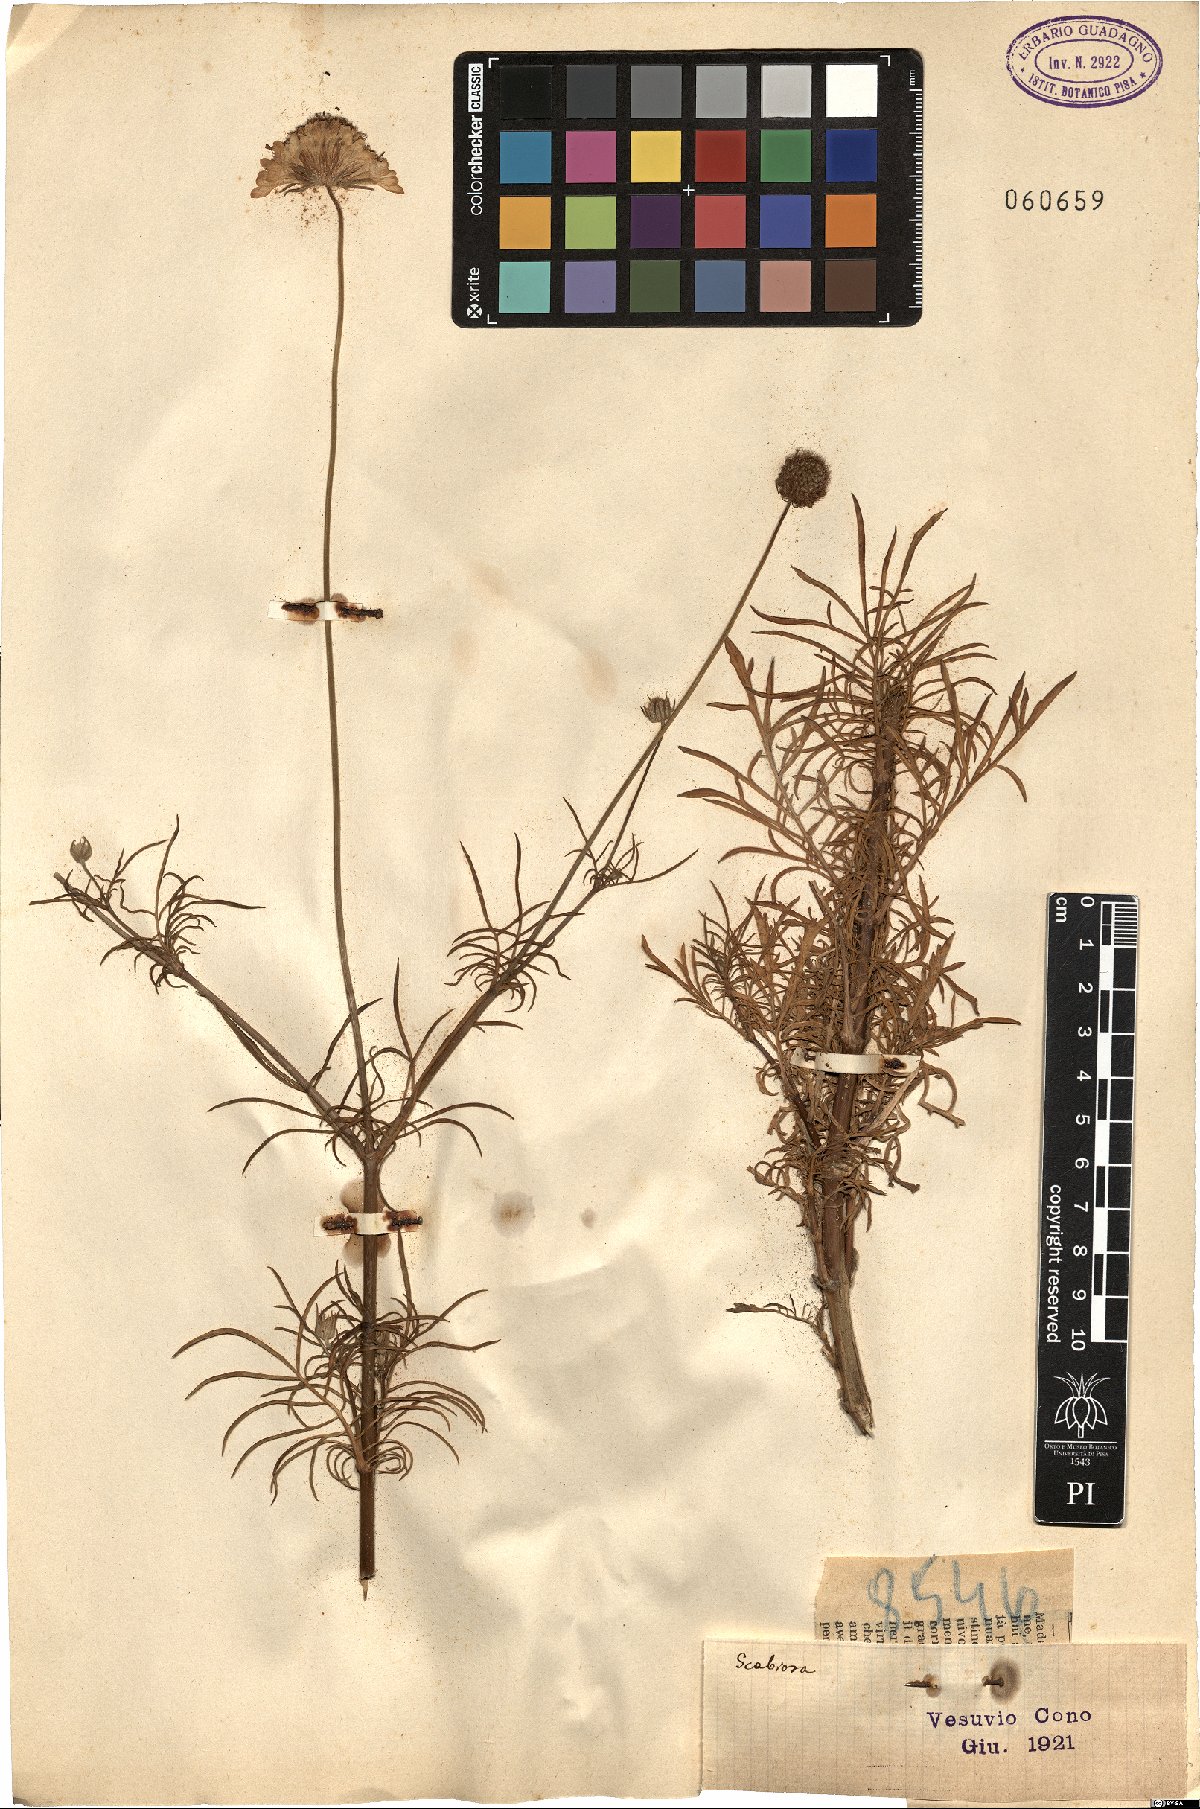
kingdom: Plantae
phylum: Tracheophyta
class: Magnoliopsida
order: Dipsacales
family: Caprifoliaceae
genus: Scabiosa
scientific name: Scabiosa
